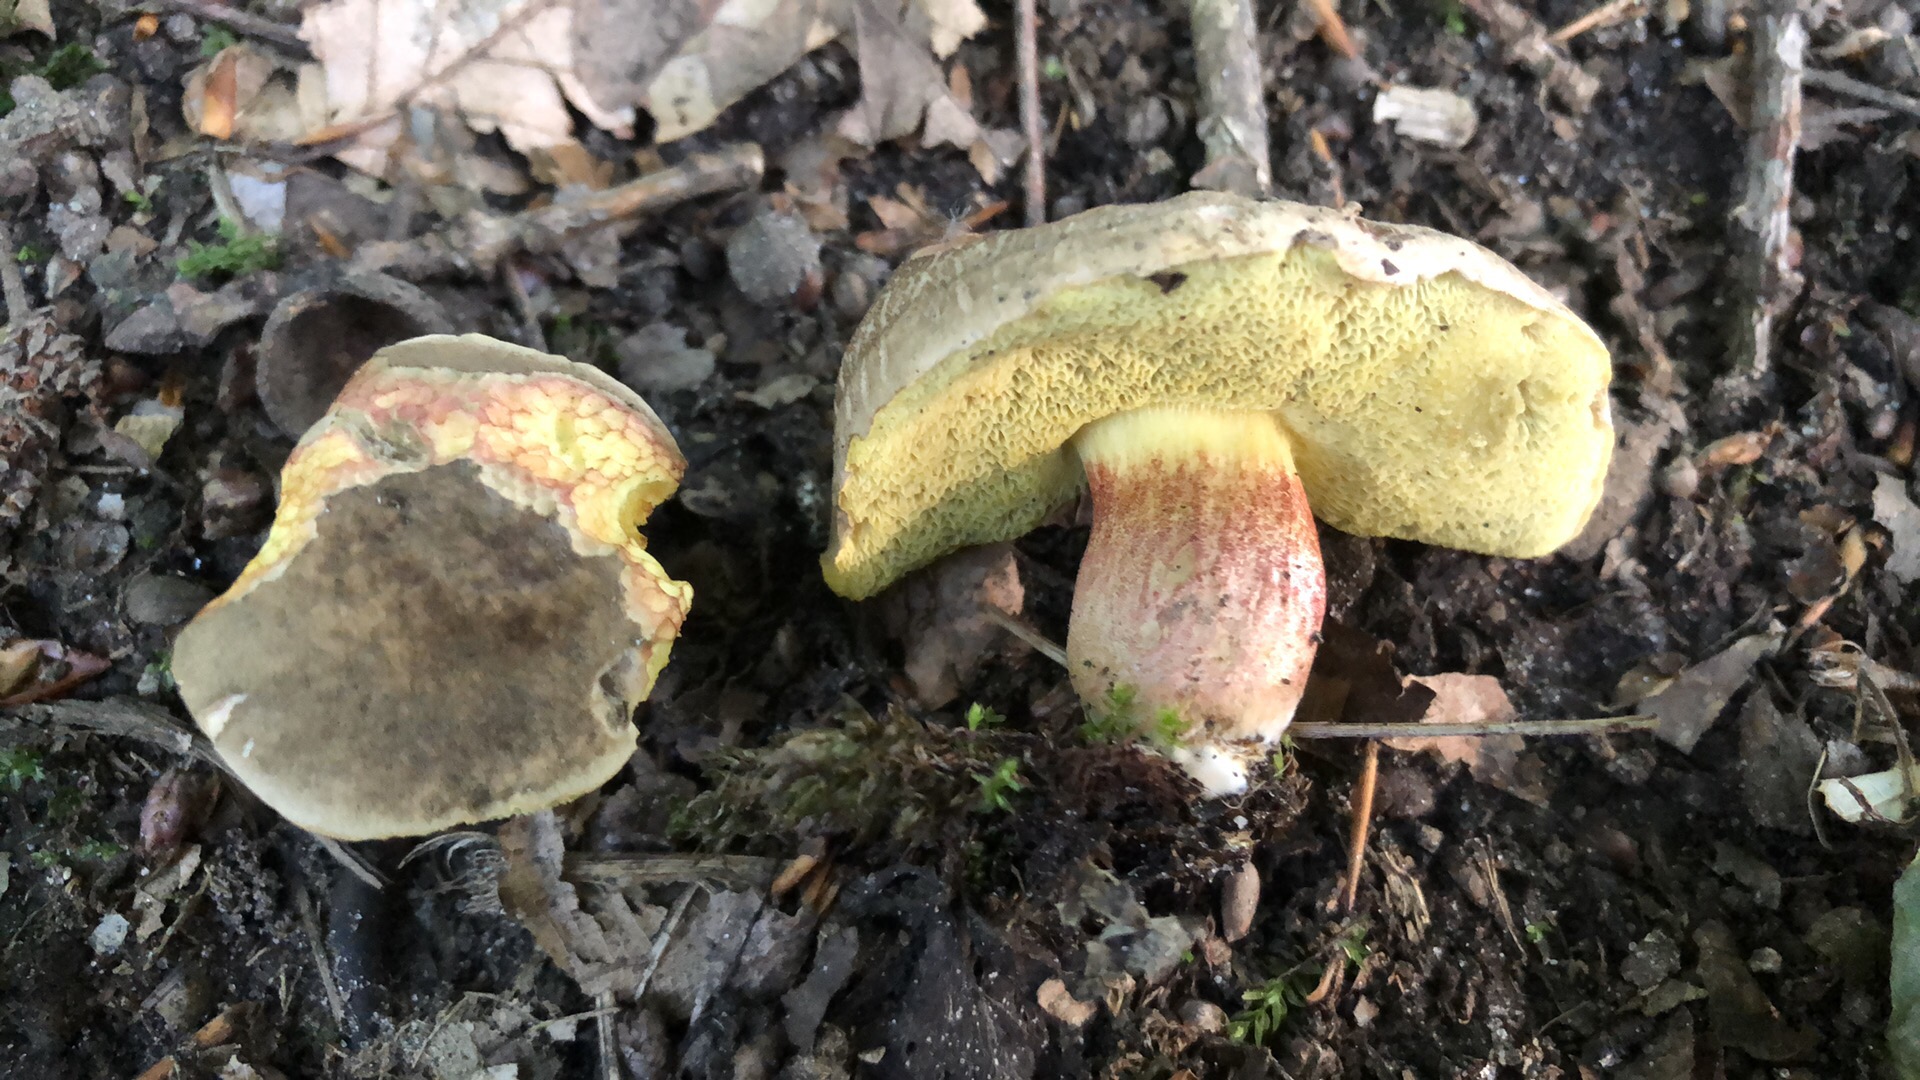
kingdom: Fungi
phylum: Basidiomycota
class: Agaricomycetes
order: Boletales
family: Boletaceae
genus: Xerocomellus
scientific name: Xerocomellus chrysenteron
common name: rødsprukken rørhat
